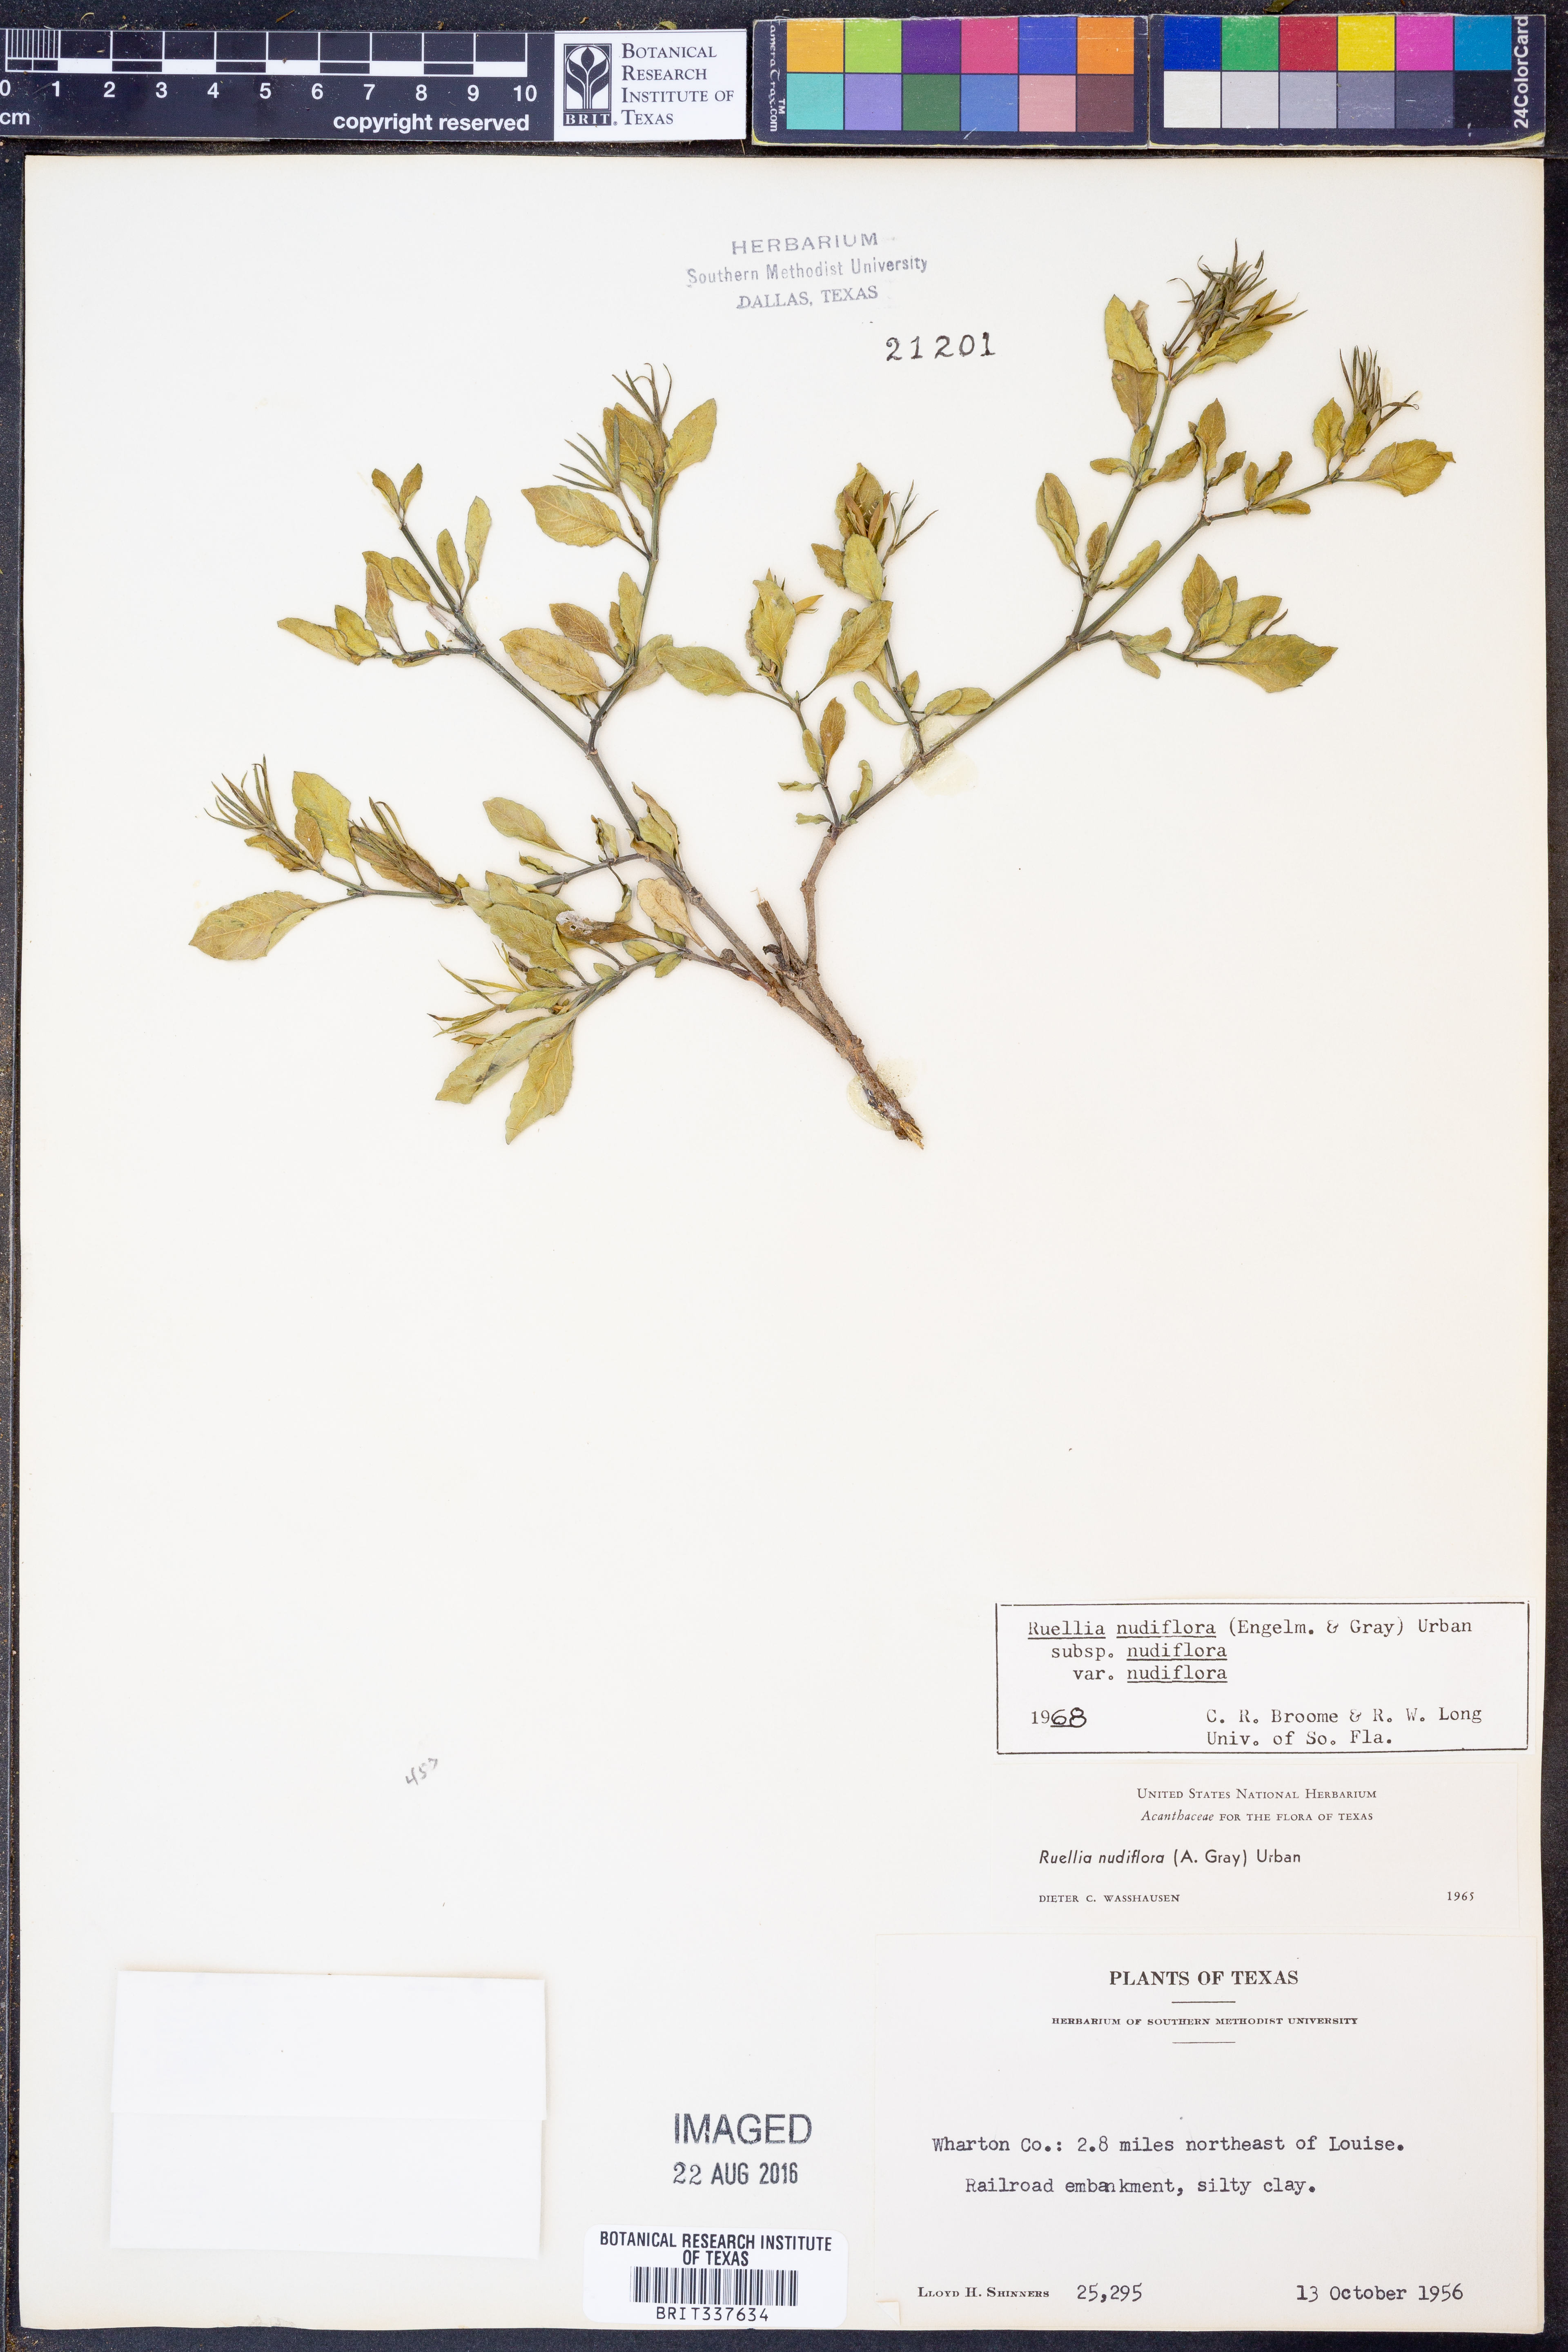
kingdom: Plantae
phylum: Tracheophyta
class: Magnoliopsida
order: Lamiales
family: Acanthaceae
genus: Ruellia
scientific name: Ruellia ciliatiflora
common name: Hairyflower wild petunia
